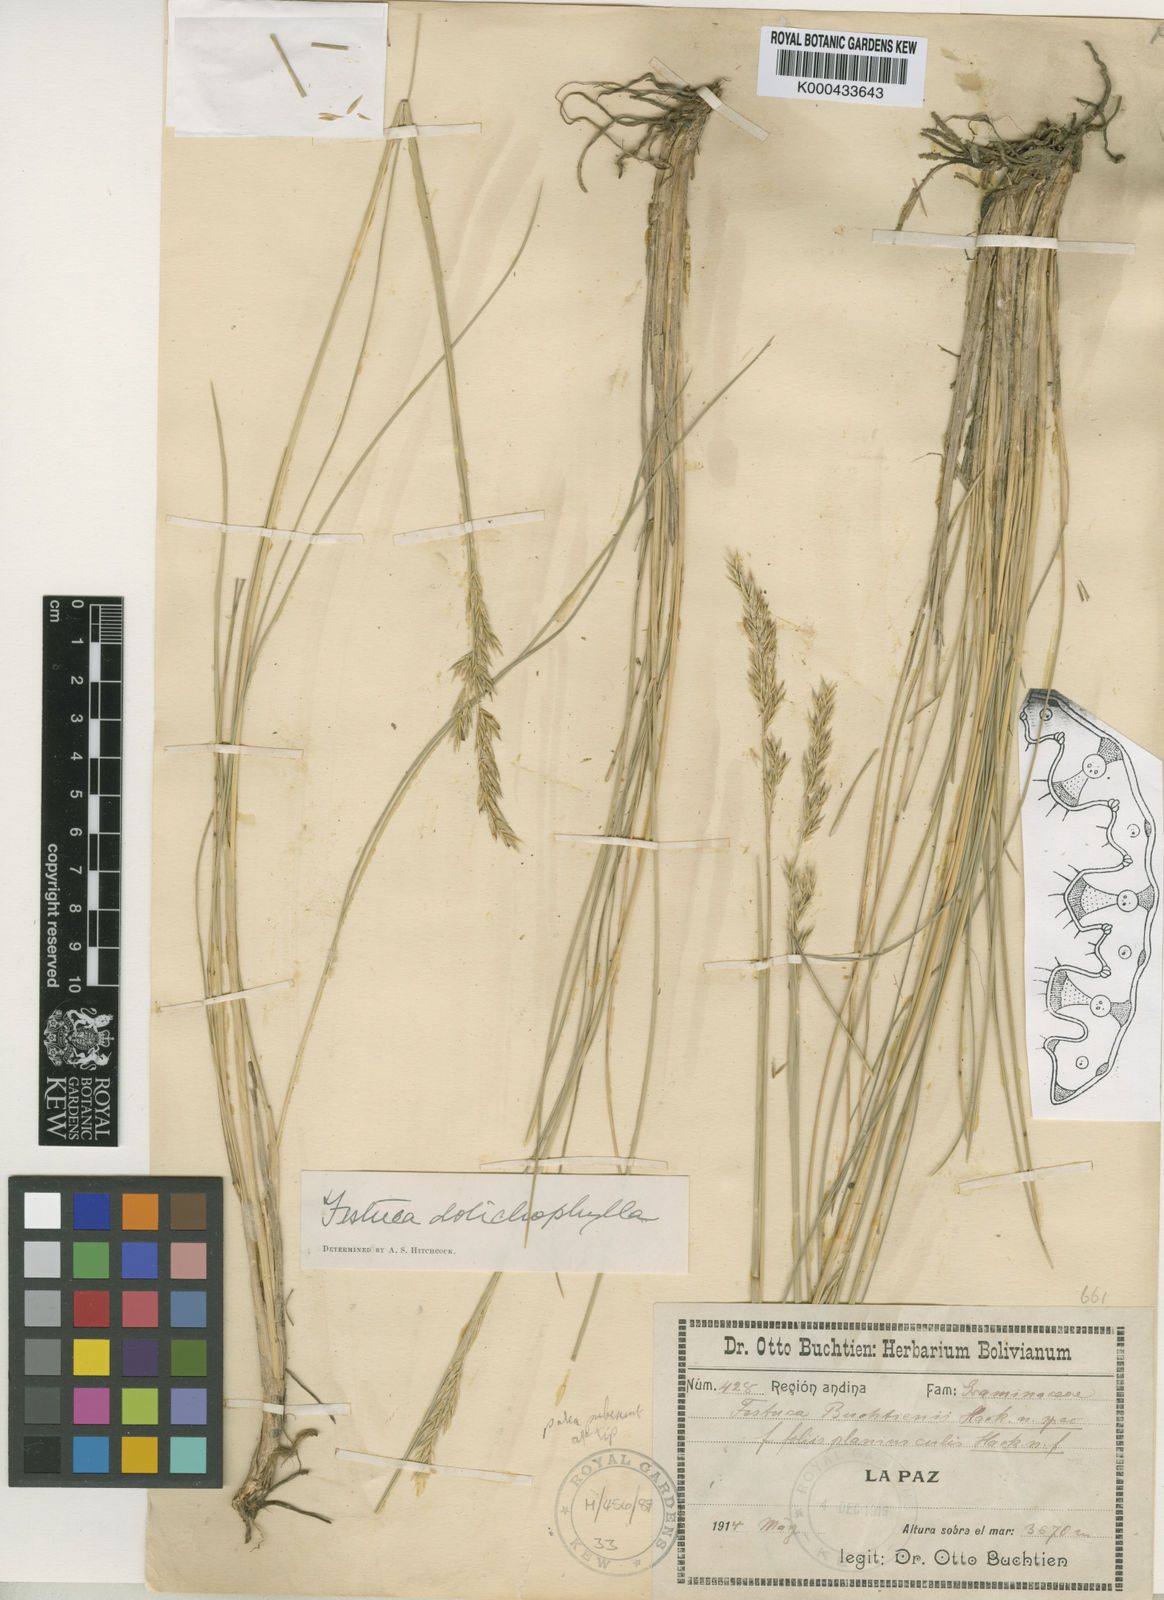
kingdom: Plantae
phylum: Tracheophyta
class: Liliopsida
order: Poales
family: Poaceae
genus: Festuca
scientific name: Festuca humilior
